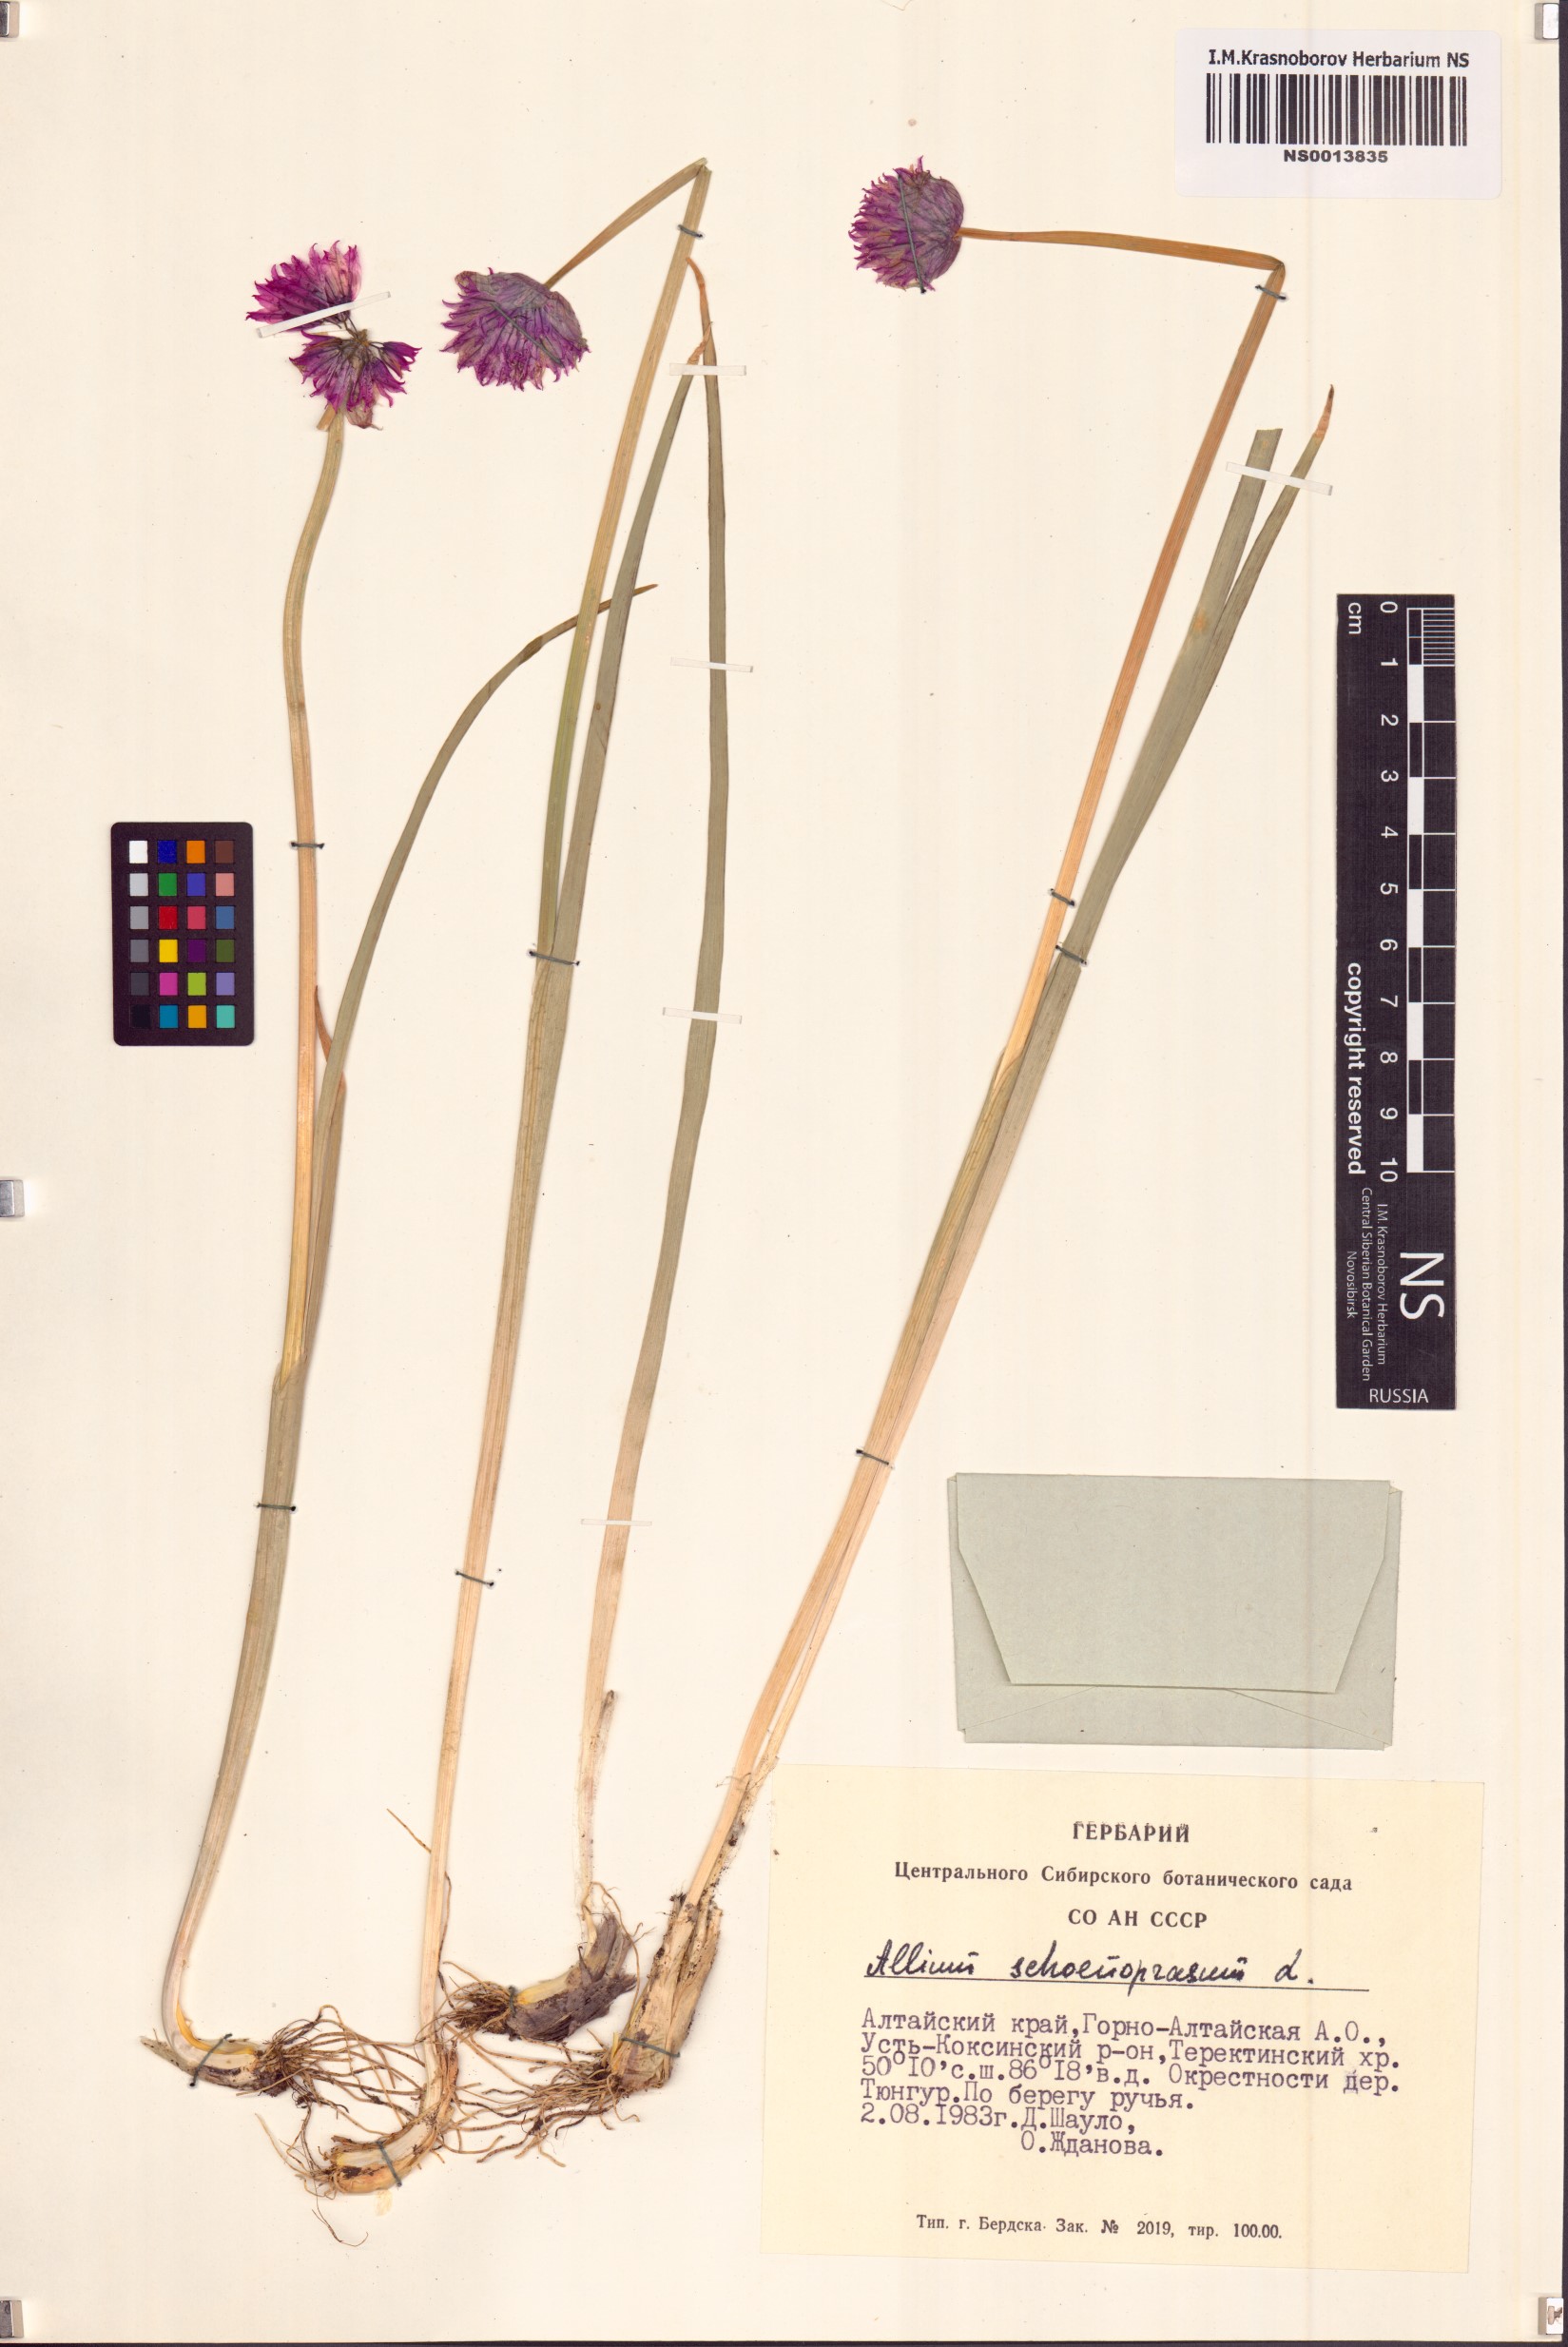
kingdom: Plantae
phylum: Tracheophyta
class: Liliopsida
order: Asparagales
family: Amaryllidaceae
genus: Allium
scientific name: Allium schoenoprasum
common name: Chives
